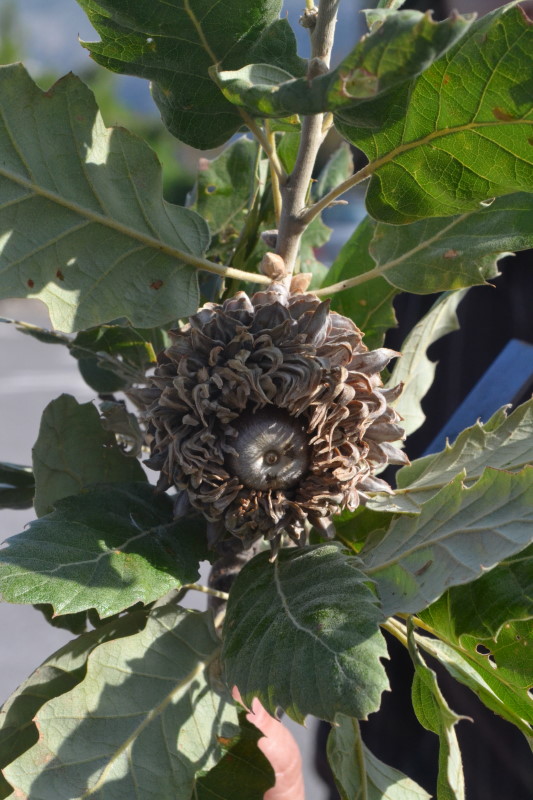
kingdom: Plantae
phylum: Tracheophyta
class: Magnoliopsida
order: Fagales
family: Fagaceae
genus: Quercus
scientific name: Quercus ithaburensis
